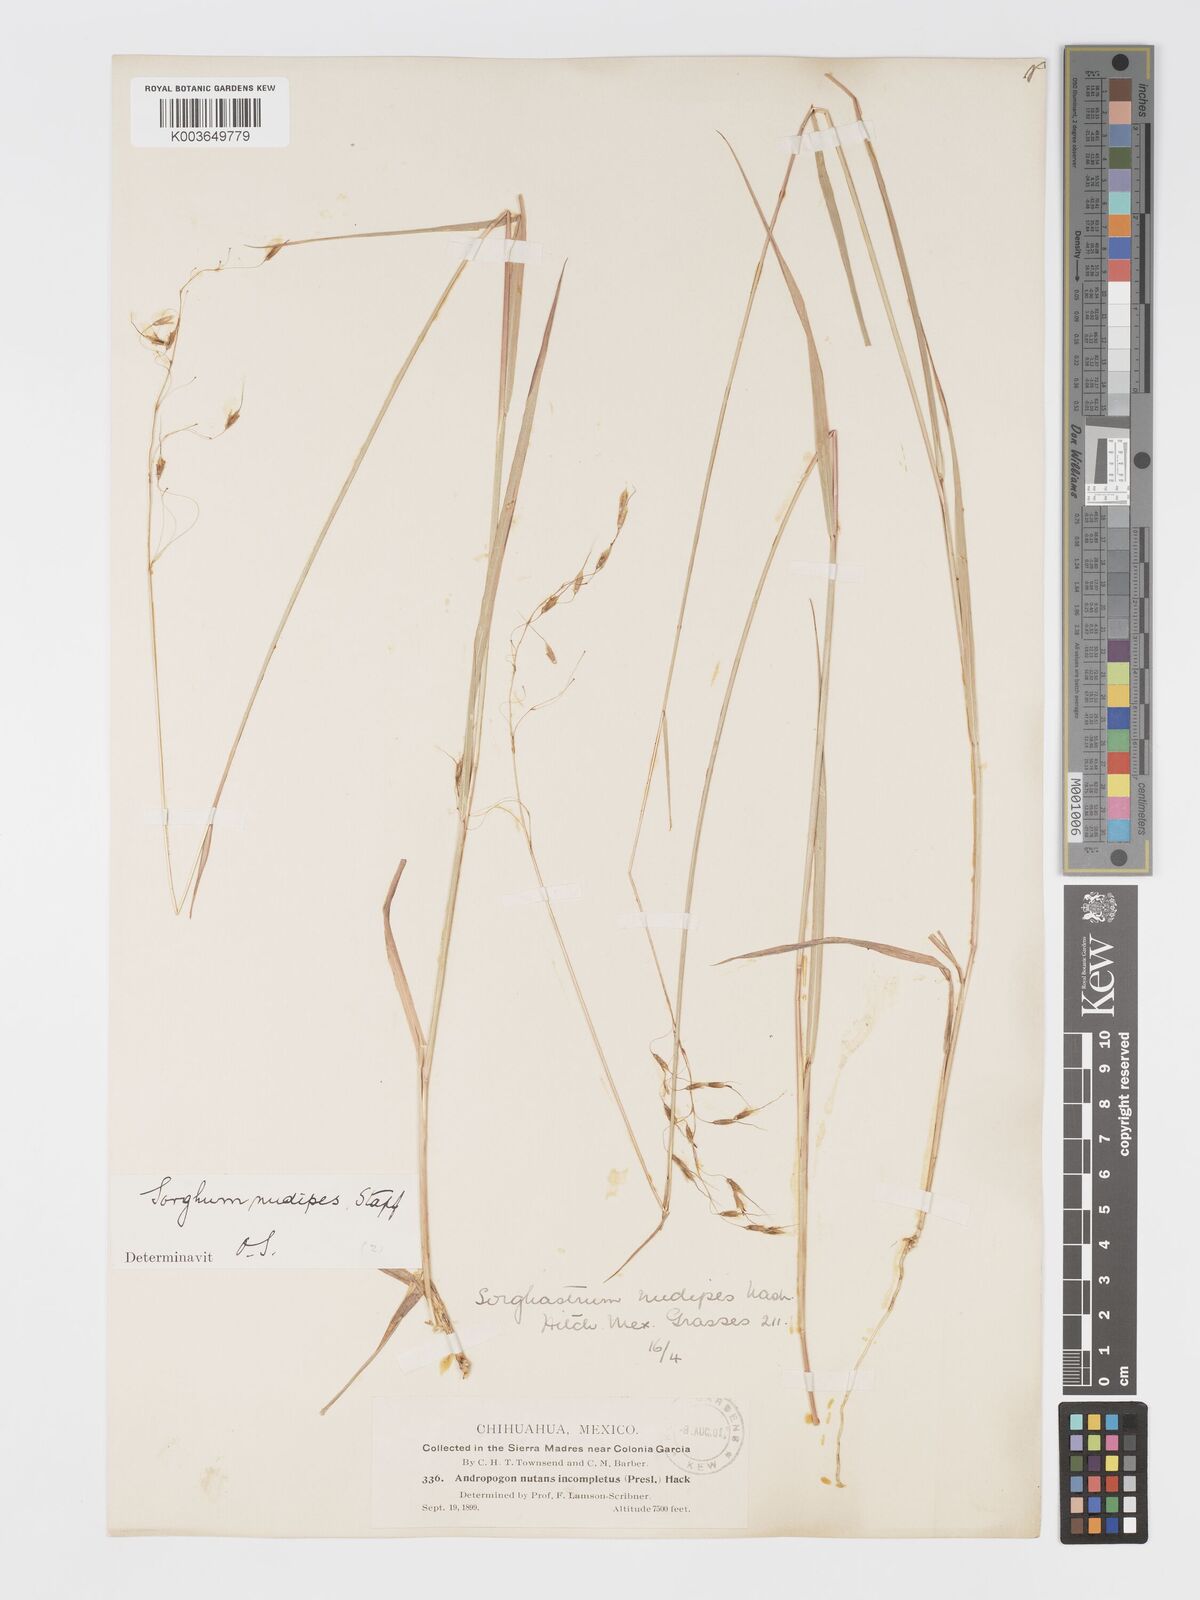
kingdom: Plantae
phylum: Tracheophyta
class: Liliopsida
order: Poales
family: Poaceae
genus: Sorghastrum
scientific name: Sorghastrum nudipes
